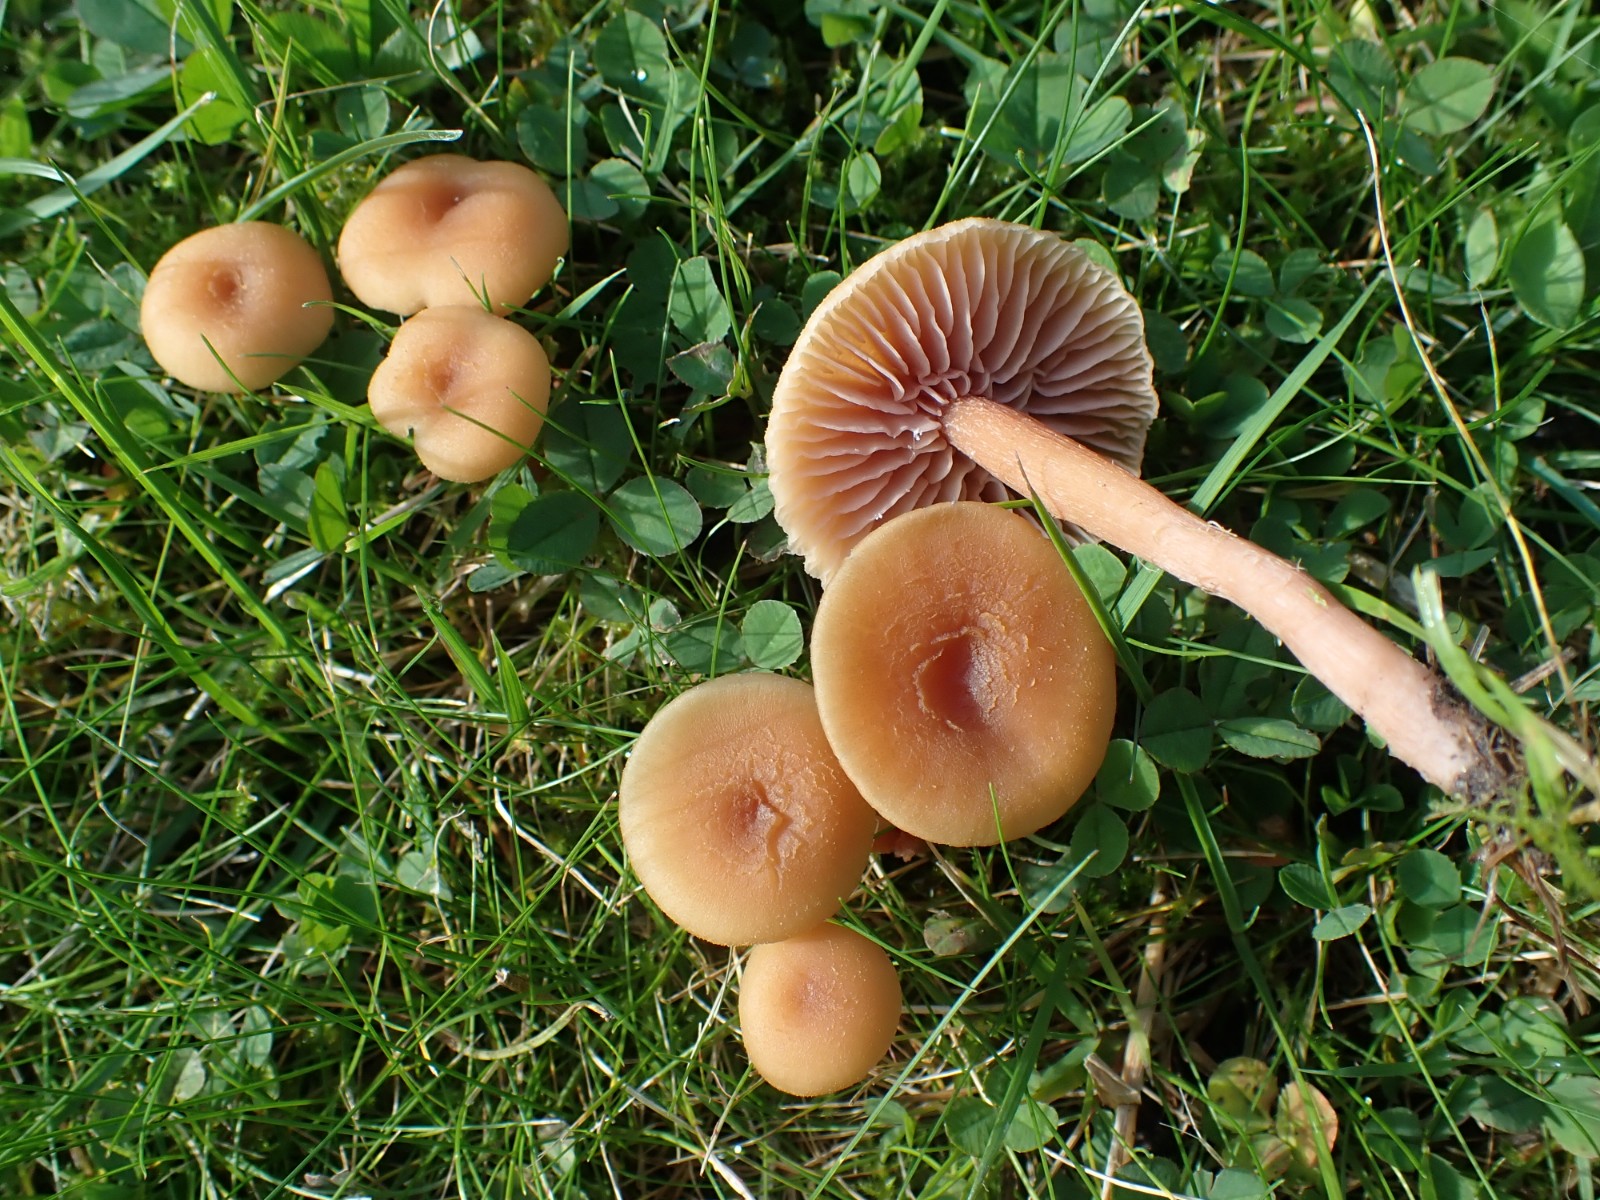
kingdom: Fungi
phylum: Basidiomycota
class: Agaricomycetes
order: Agaricales
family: Hydnangiaceae
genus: Laccaria
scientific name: Laccaria laccata
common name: rød ametysthat
